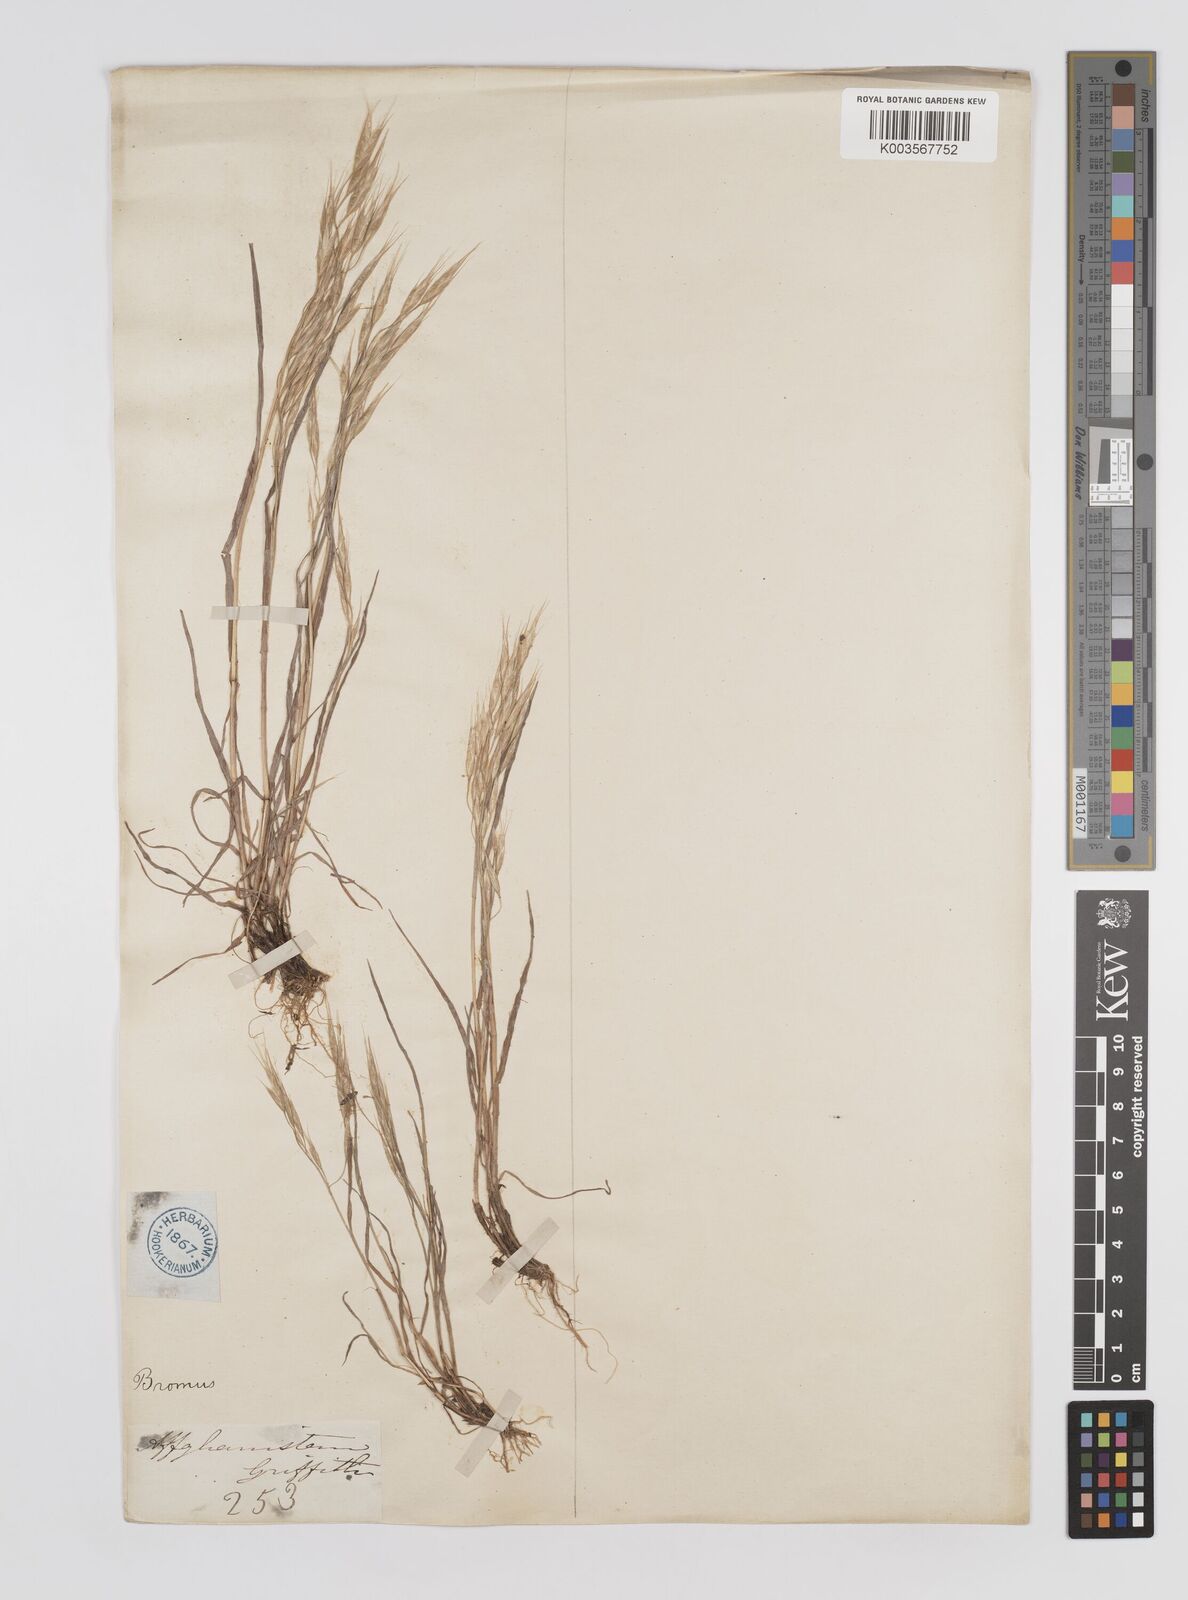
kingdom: Plantae
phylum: Tracheophyta
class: Liliopsida
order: Poales
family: Poaceae
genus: Bromus
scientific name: Bromus
